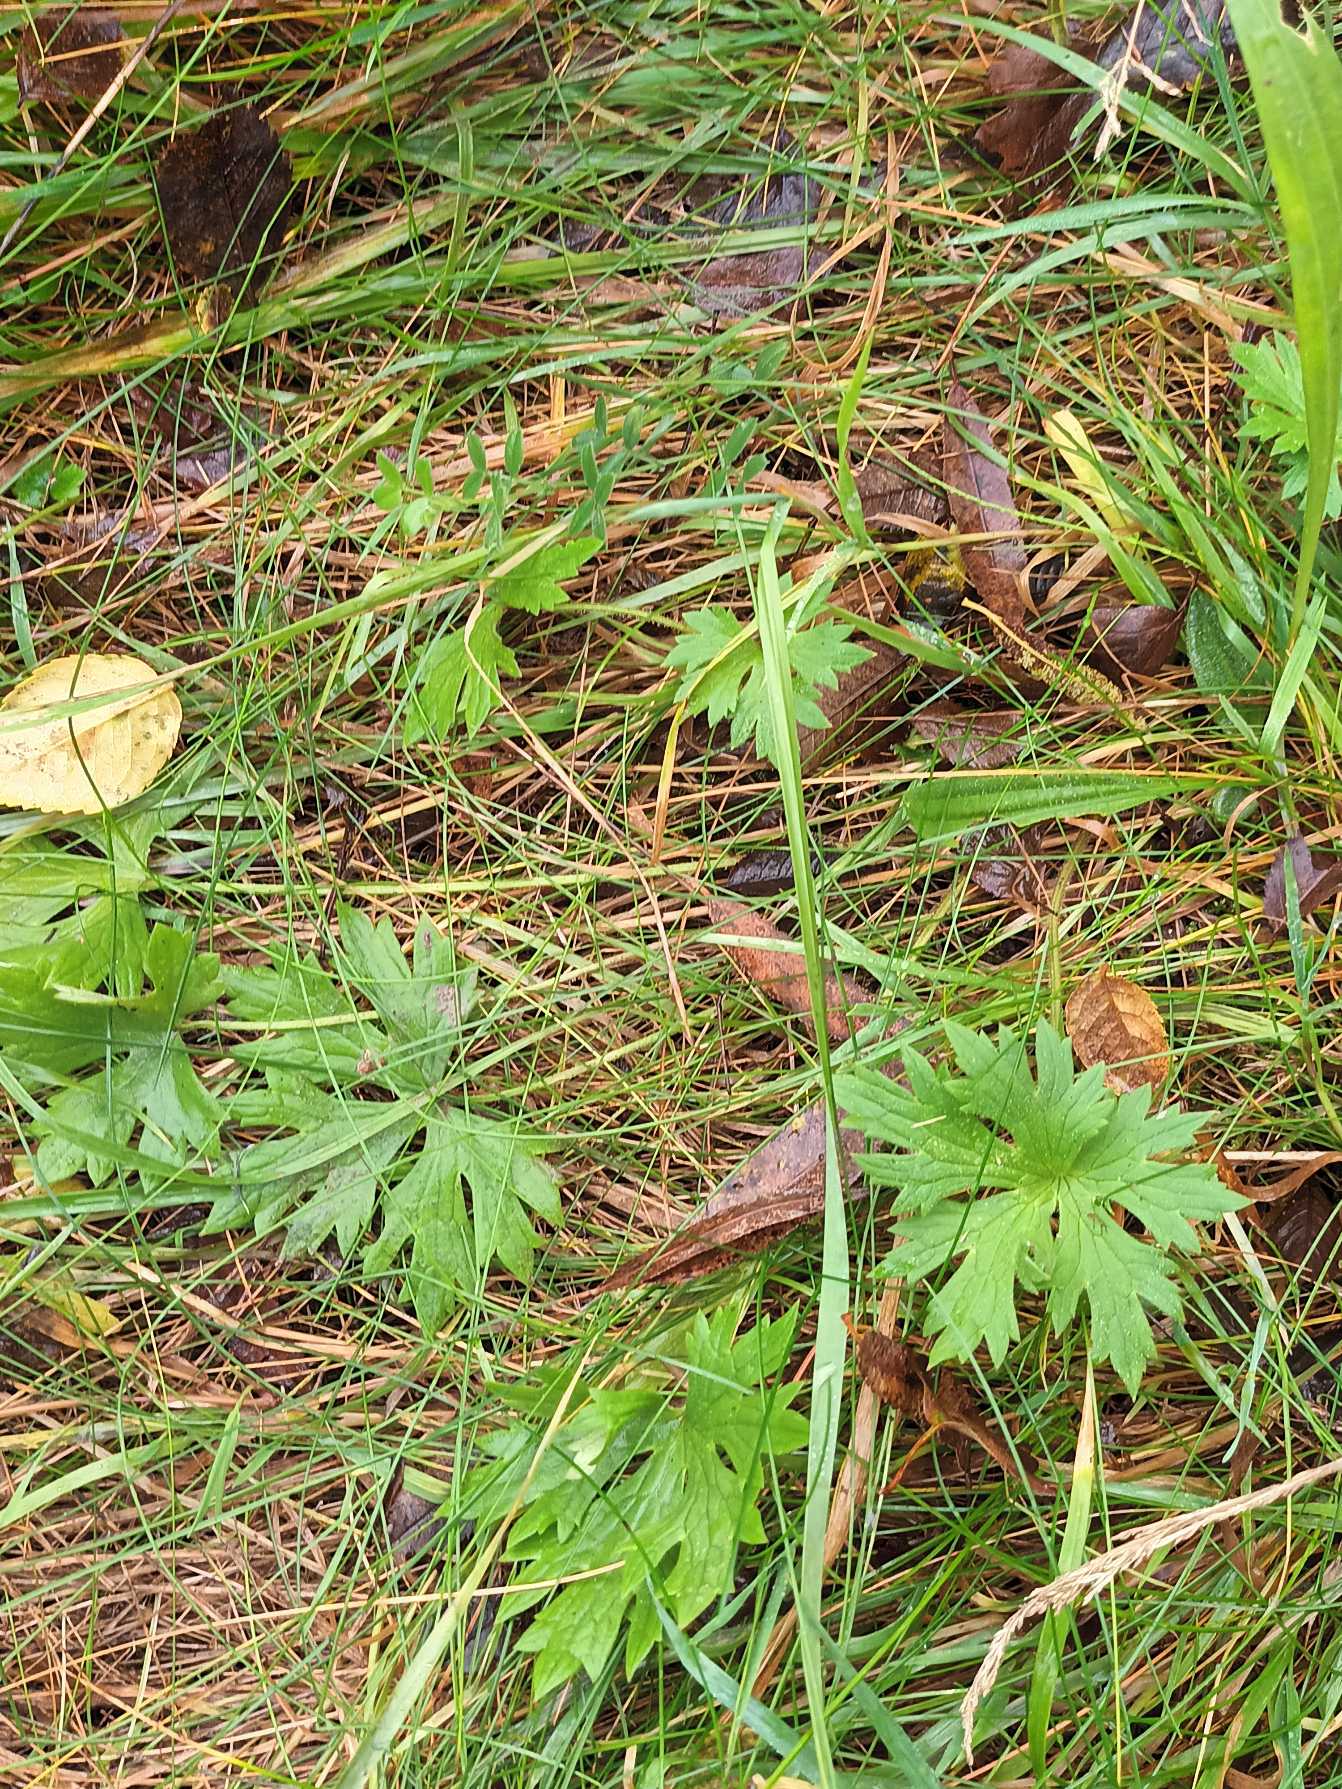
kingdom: Plantae
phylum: Tracheophyta
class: Magnoliopsida
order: Ranunculales
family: Ranunculaceae
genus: Ranunculus
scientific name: Ranunculus acris
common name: Bidende ranunkel
